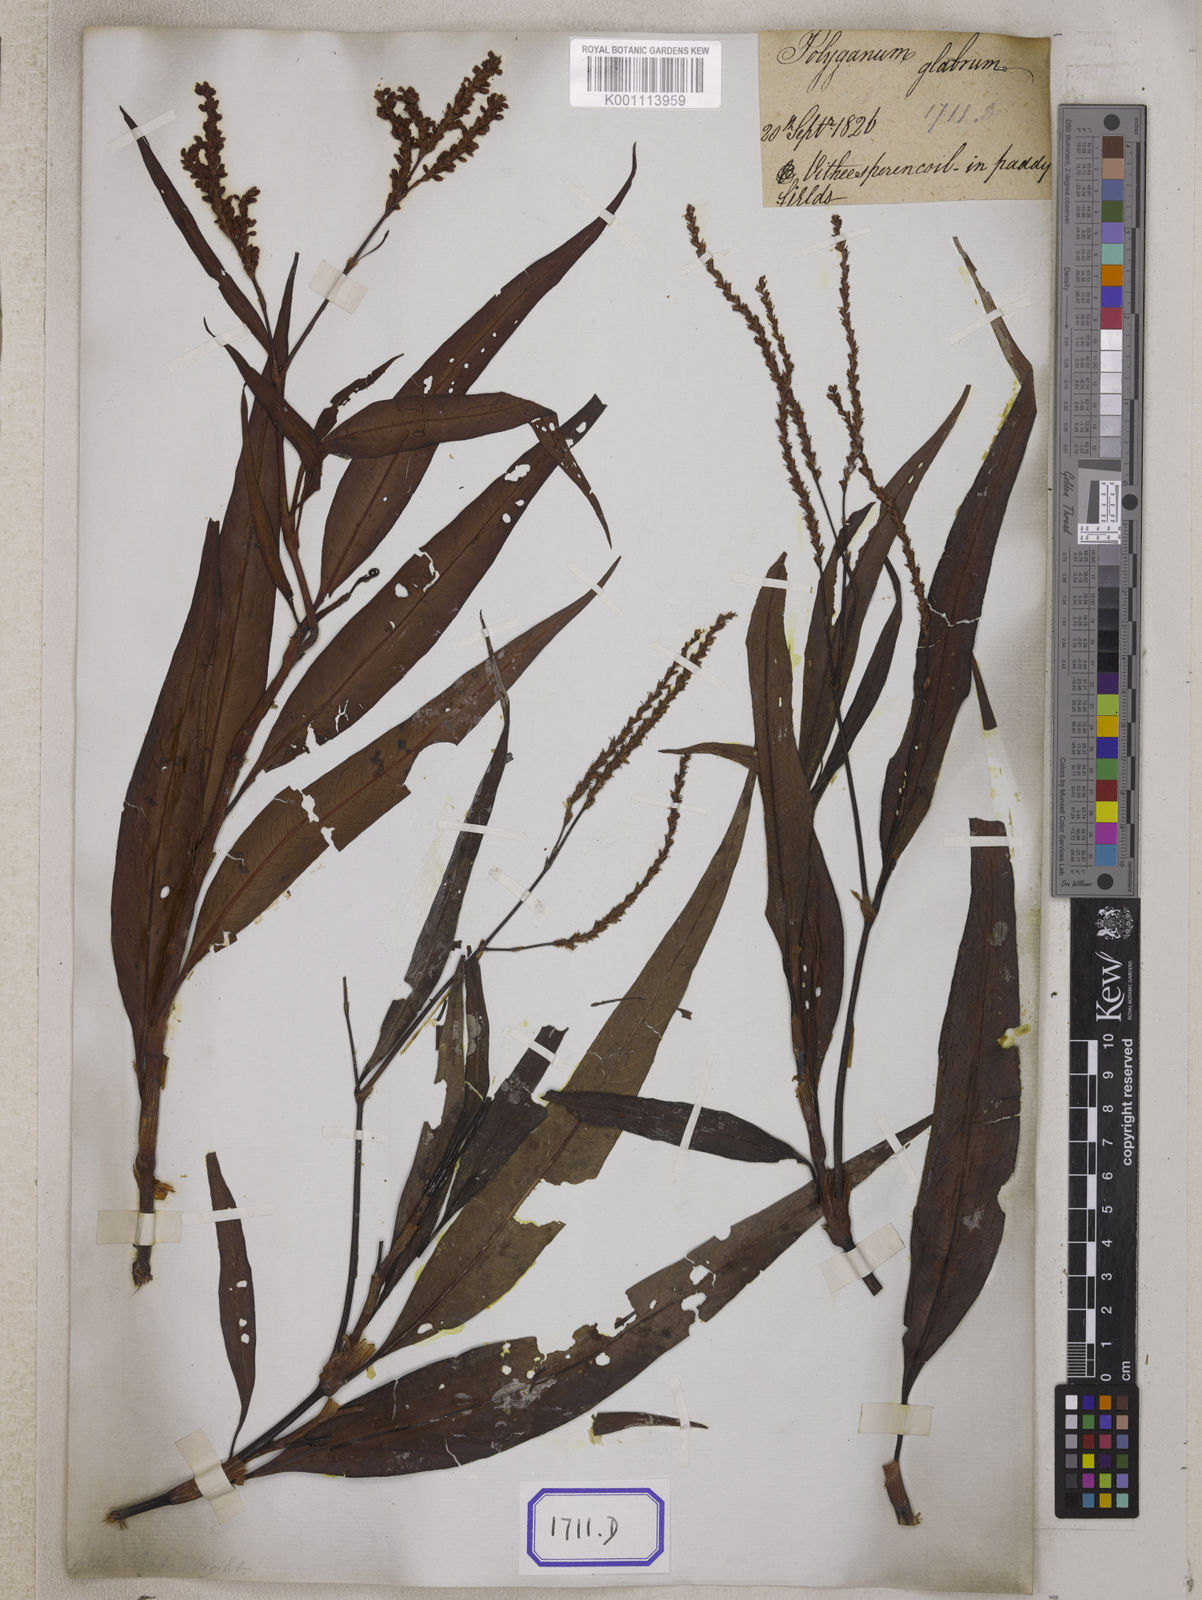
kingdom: Plantae
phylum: Tracheophyta
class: Magnoliopsida
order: Caryophyllales
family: Polygonaceae
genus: Persicaria
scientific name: Persicaria glabra
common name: Denseflower knotweed
